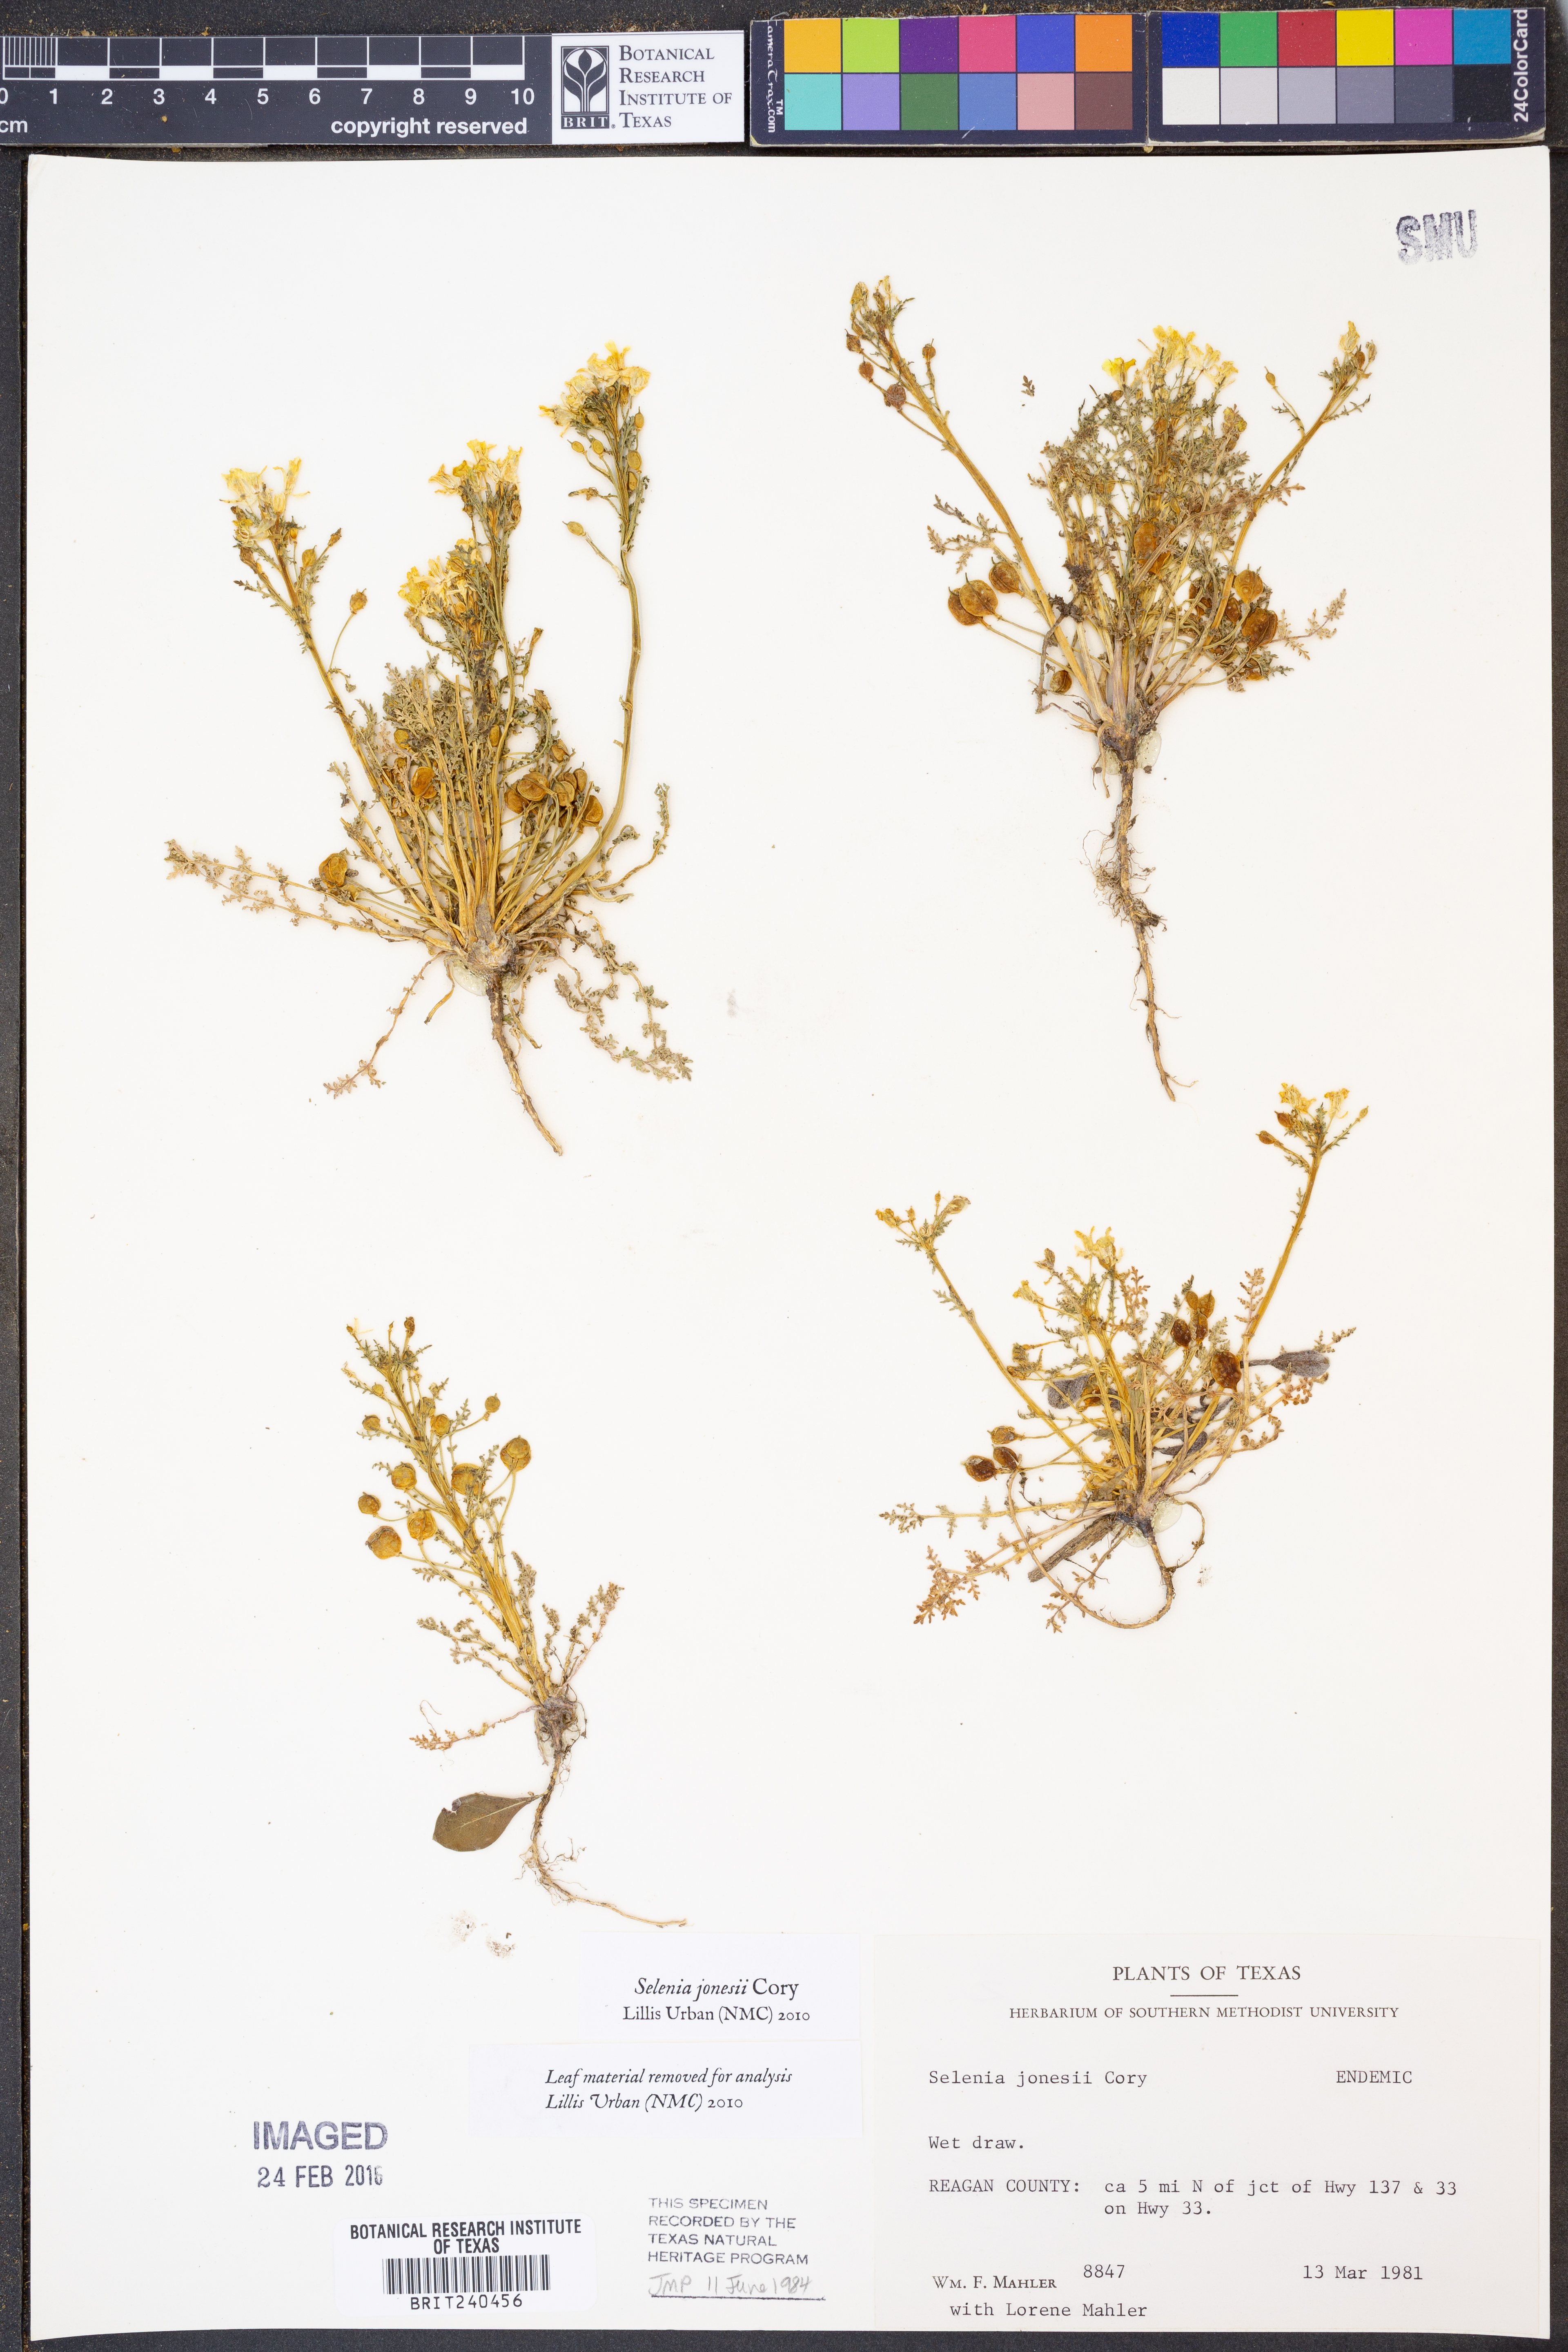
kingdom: Plantae
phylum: Tracheophyta
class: Magnoliopsida
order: Brassicales
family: Brassicaceae
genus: Selenia
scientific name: Selenia jonesii
